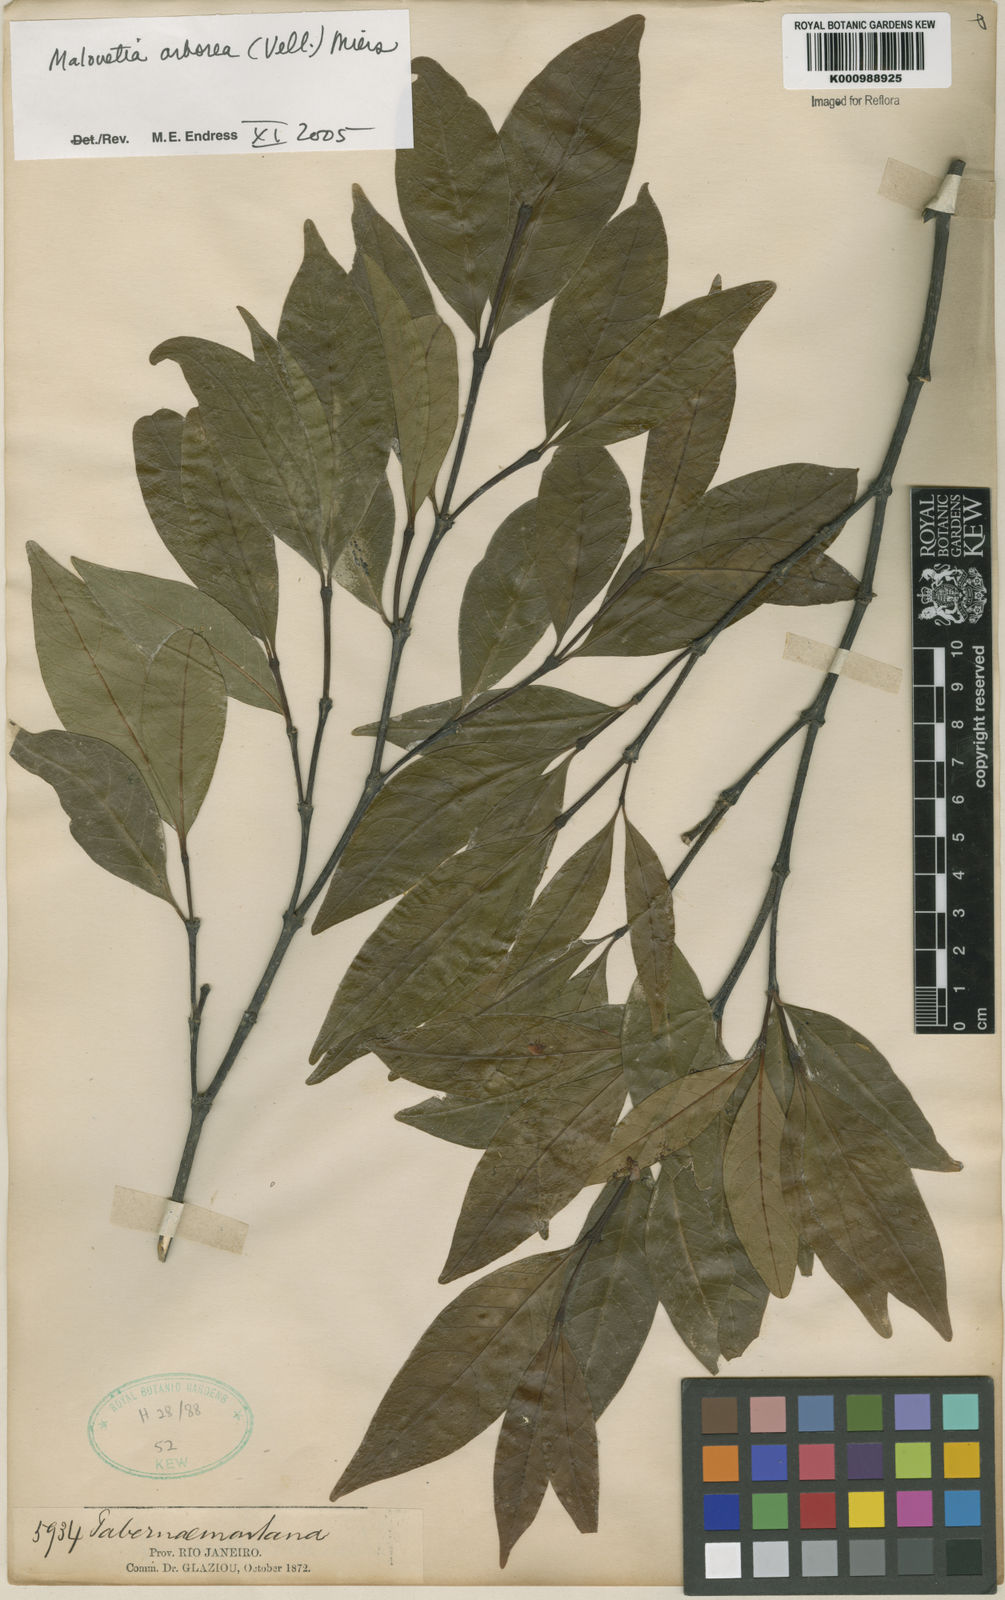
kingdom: Plantae
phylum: Tracheophyta
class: Magnoliopsida
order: Gentianales
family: Apocynaceae
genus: Malouetia
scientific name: Malouetia cestroides
